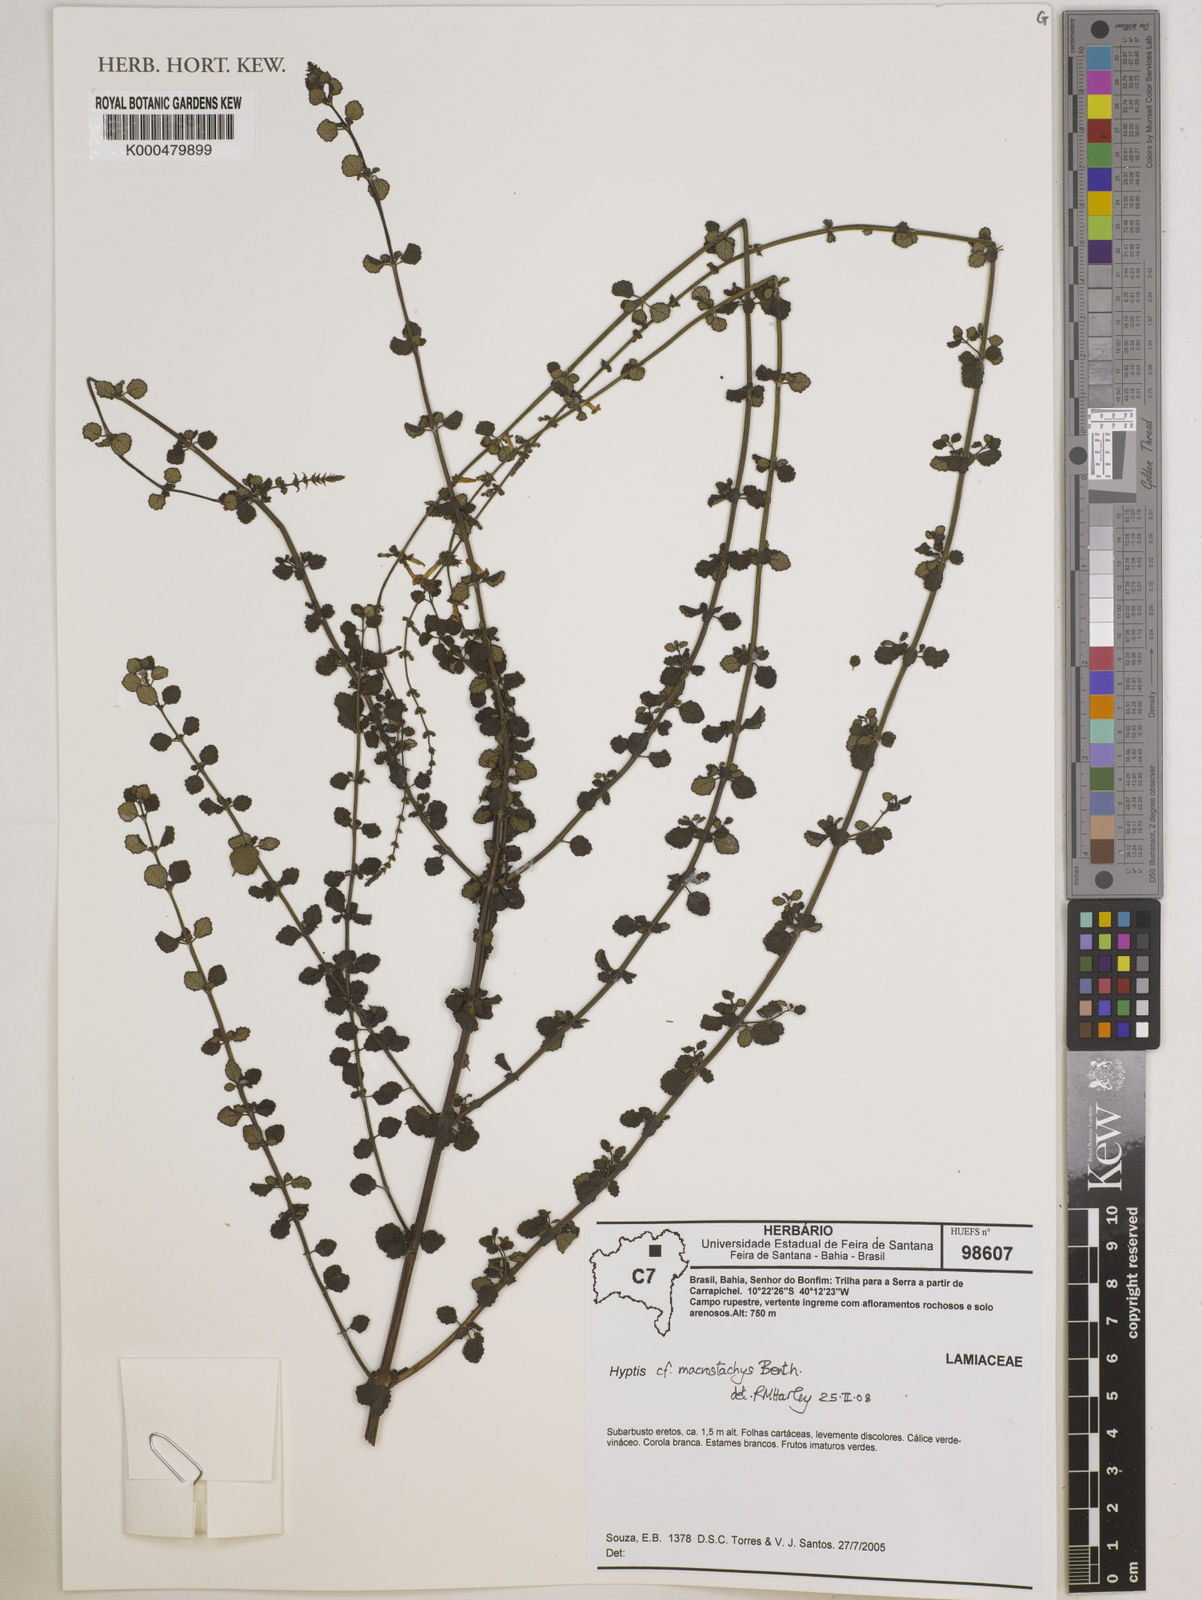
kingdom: Plantae
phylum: Tracheophyta
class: Magnoliopsida
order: Lamiales
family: Lamiaceae
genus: Leptohyptis
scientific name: Leptohyptis macrostachys
